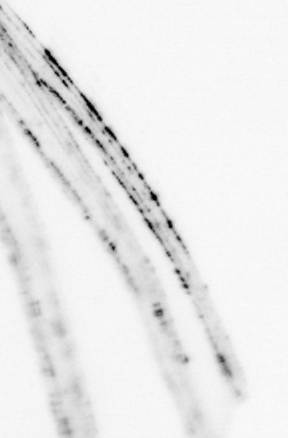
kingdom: Animalia
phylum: Chordata
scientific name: Chordata
